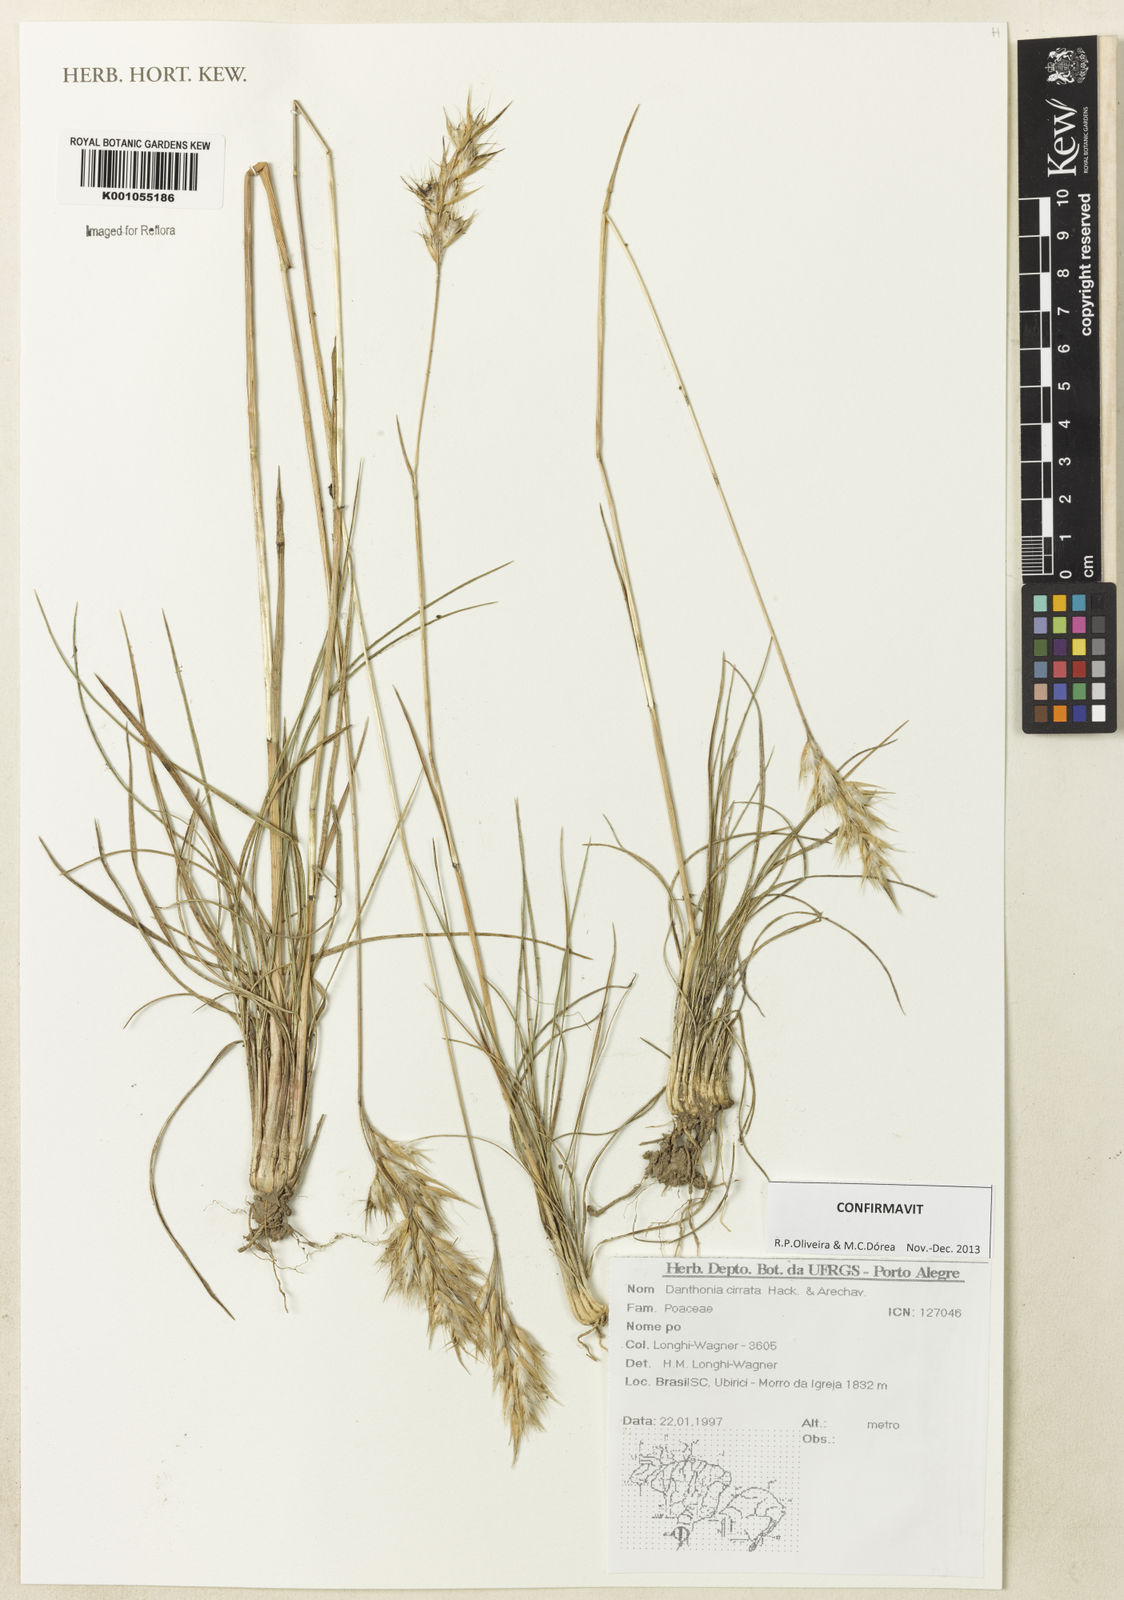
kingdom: Plantae
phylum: Tracheophyta
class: Liliopsida
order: Poales
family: Poaceae
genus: Danthonia
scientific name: Danthonia cirrata
